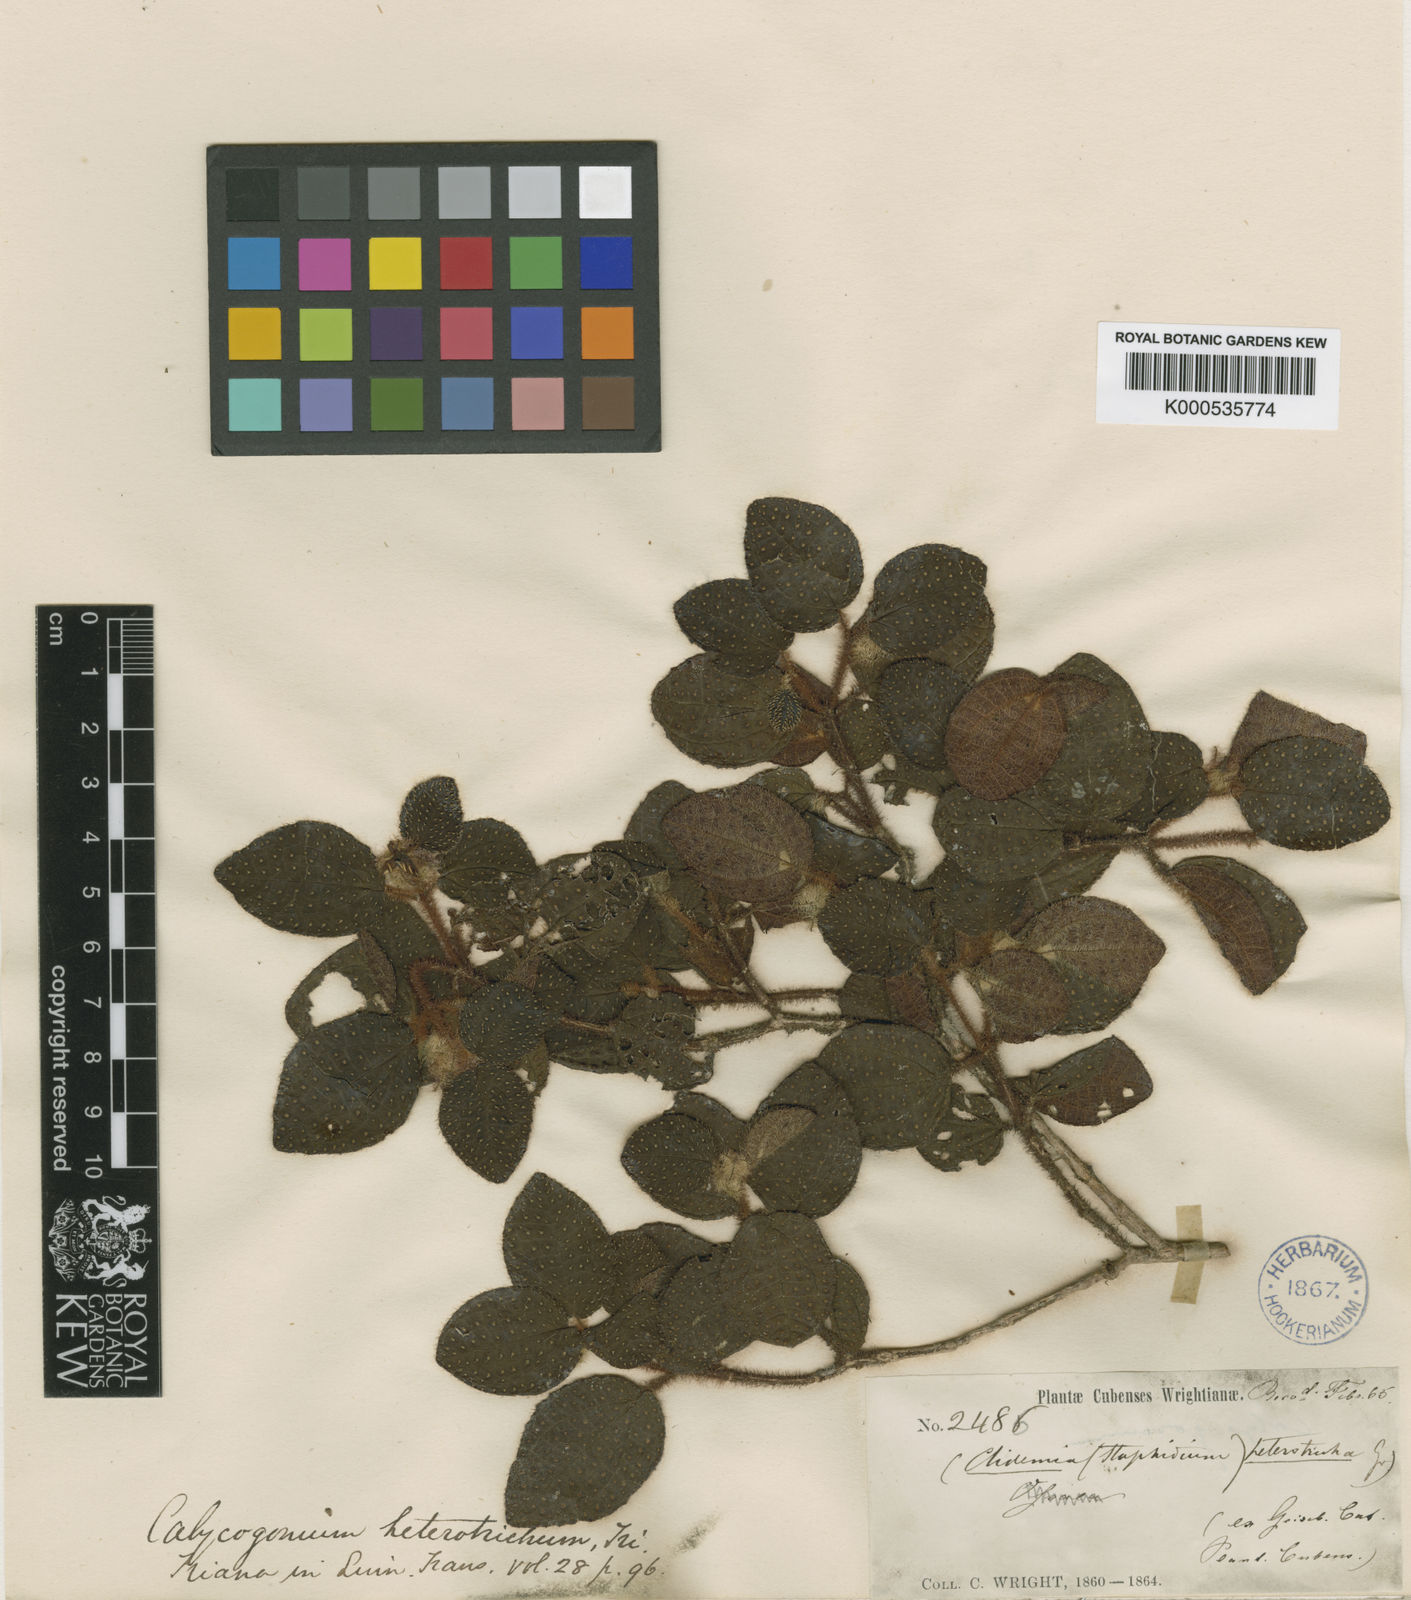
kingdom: Plantae
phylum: Tracheophyta
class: Magnoliopsida
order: Myrtales
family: Melastomataceae
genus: Miconia
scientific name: Miconia yunquensis
